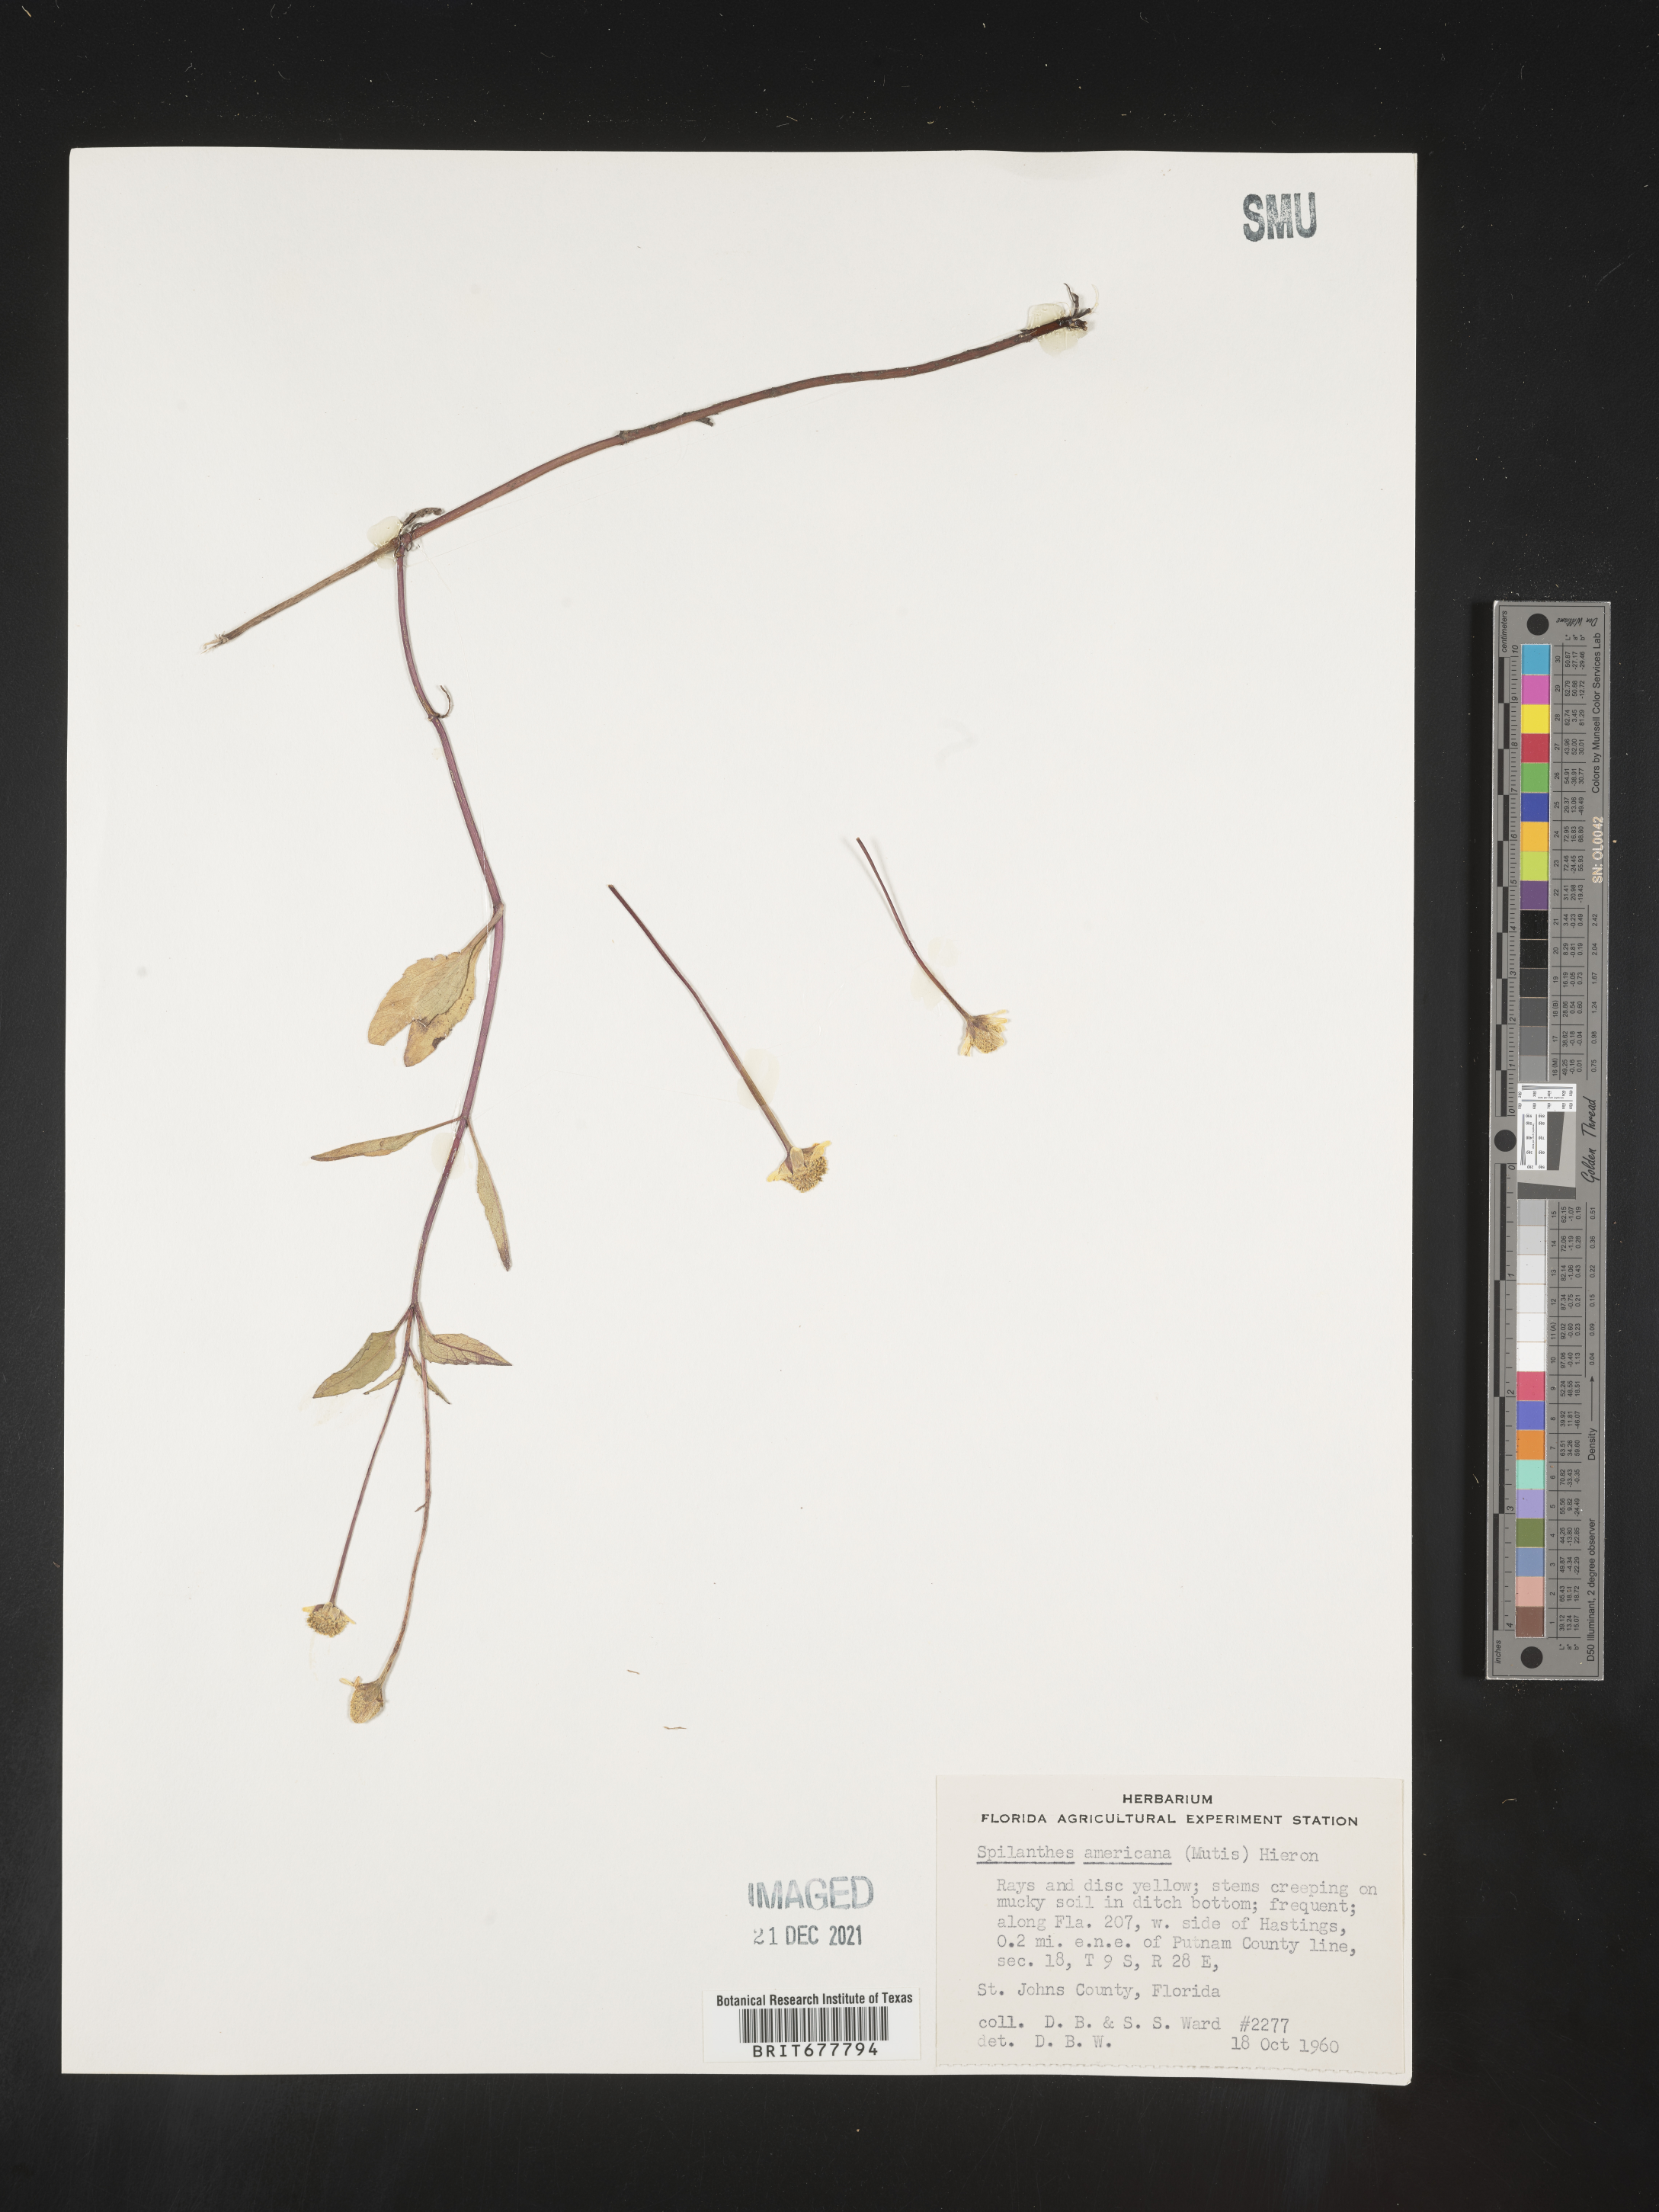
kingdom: Plantae
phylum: Tracheophyta
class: Magnoliopsida
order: Asterales
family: Asteraceae
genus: Spilanthes
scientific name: Spilanthes
